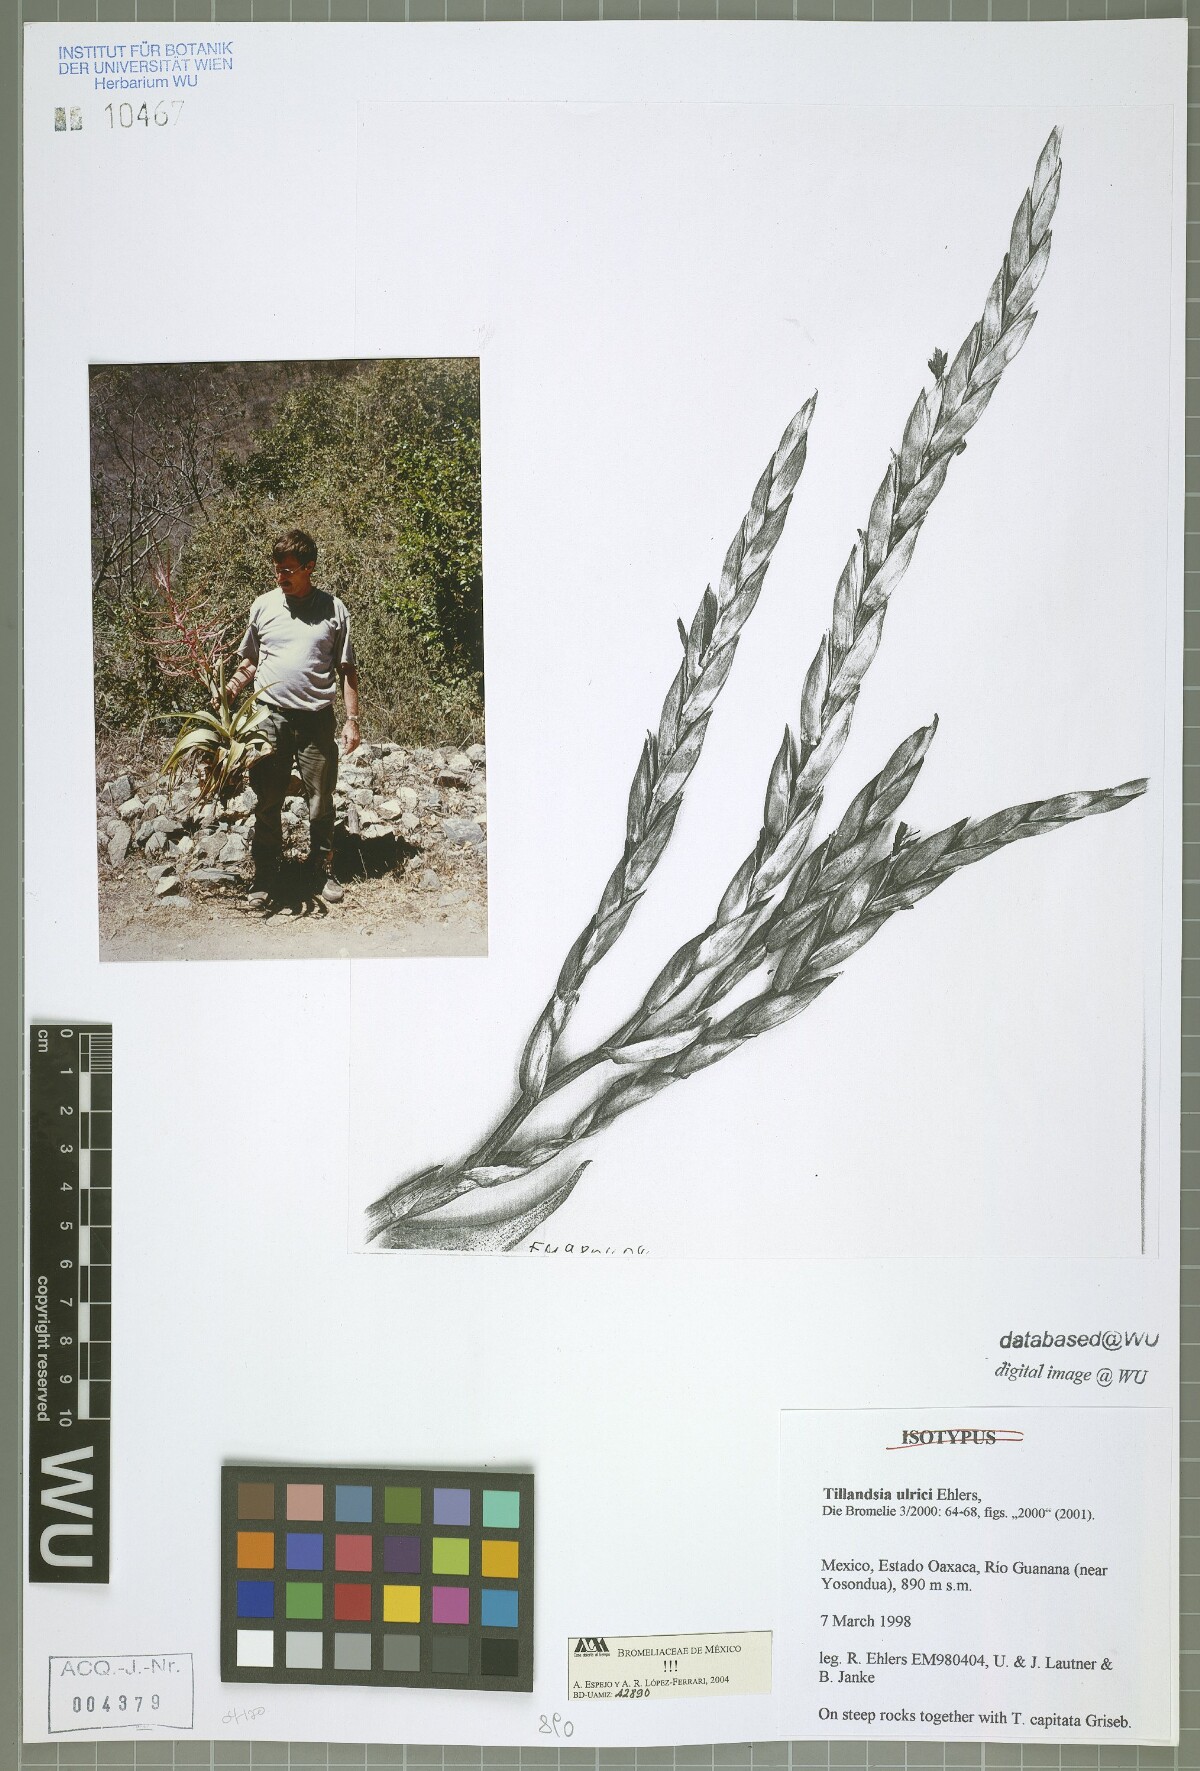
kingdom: Plantae
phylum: Tracheophyta
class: Liliopsida
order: Poales
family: Bromeliaceae
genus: Tillandsia
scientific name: Tillandsia ulrici
